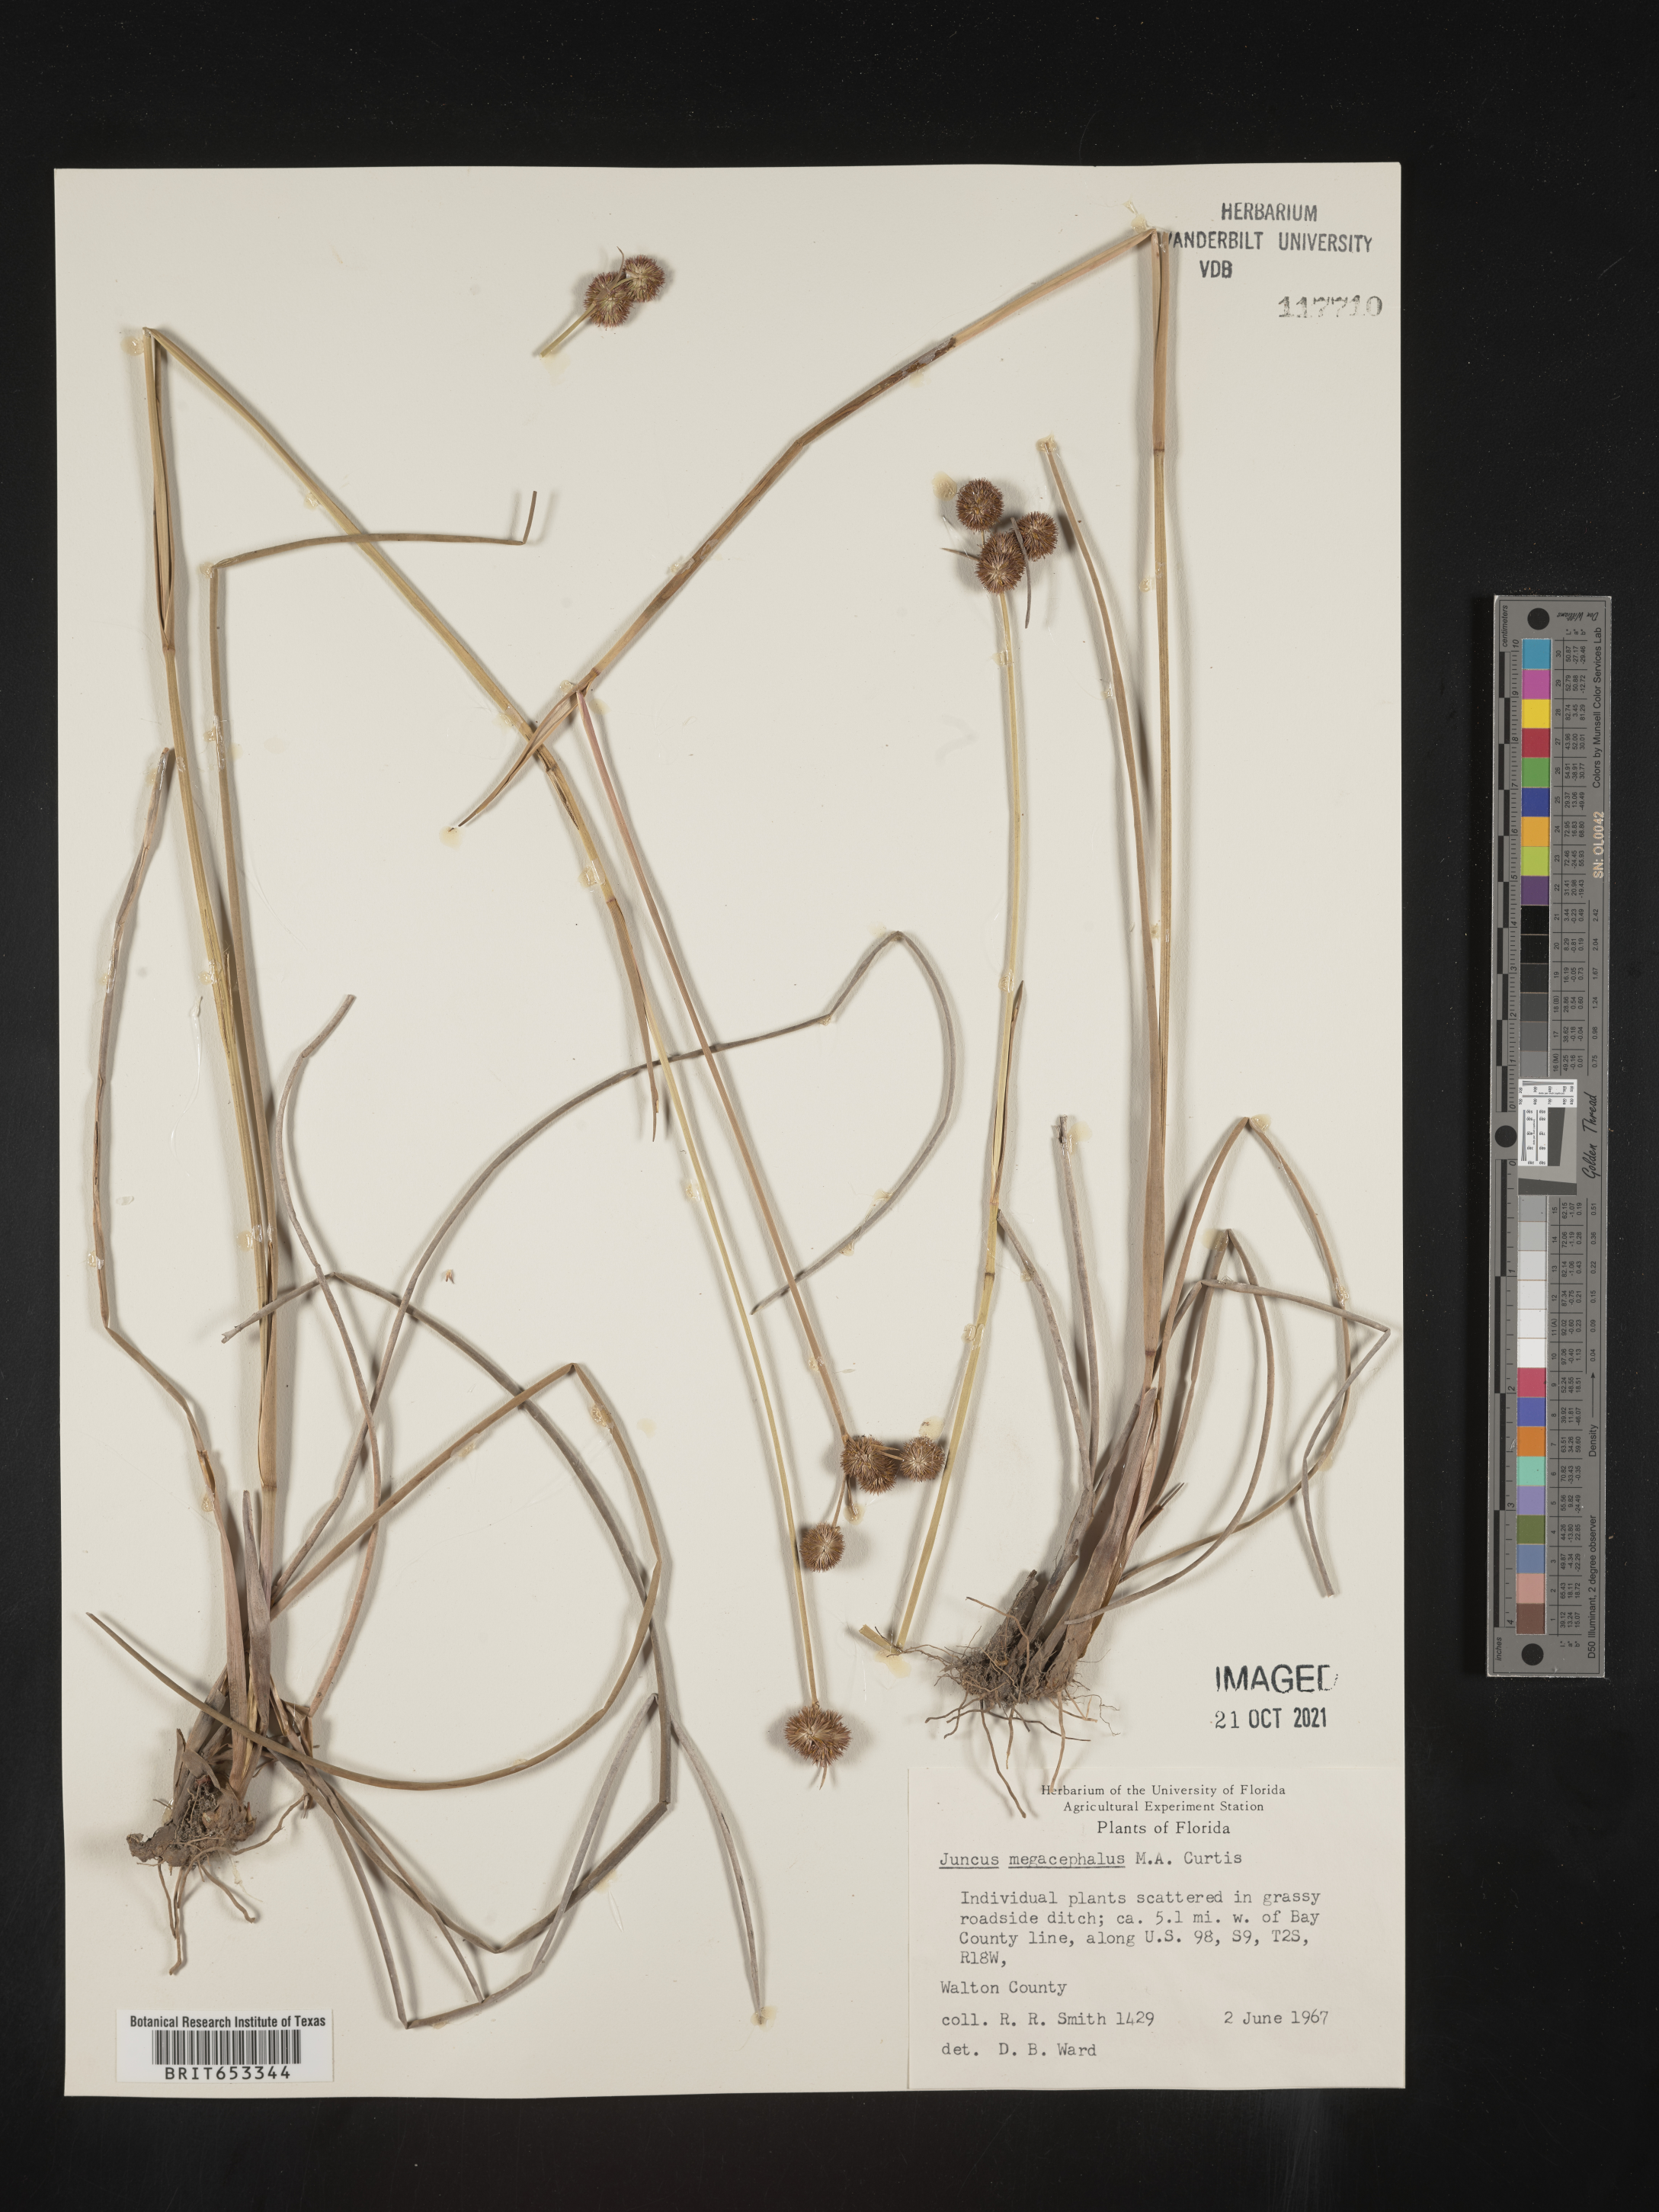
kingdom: Plantae
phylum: Tracheophyta
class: Liliopsida
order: Poales
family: Juncaceae
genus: Juncus
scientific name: Juncus megacephalus
